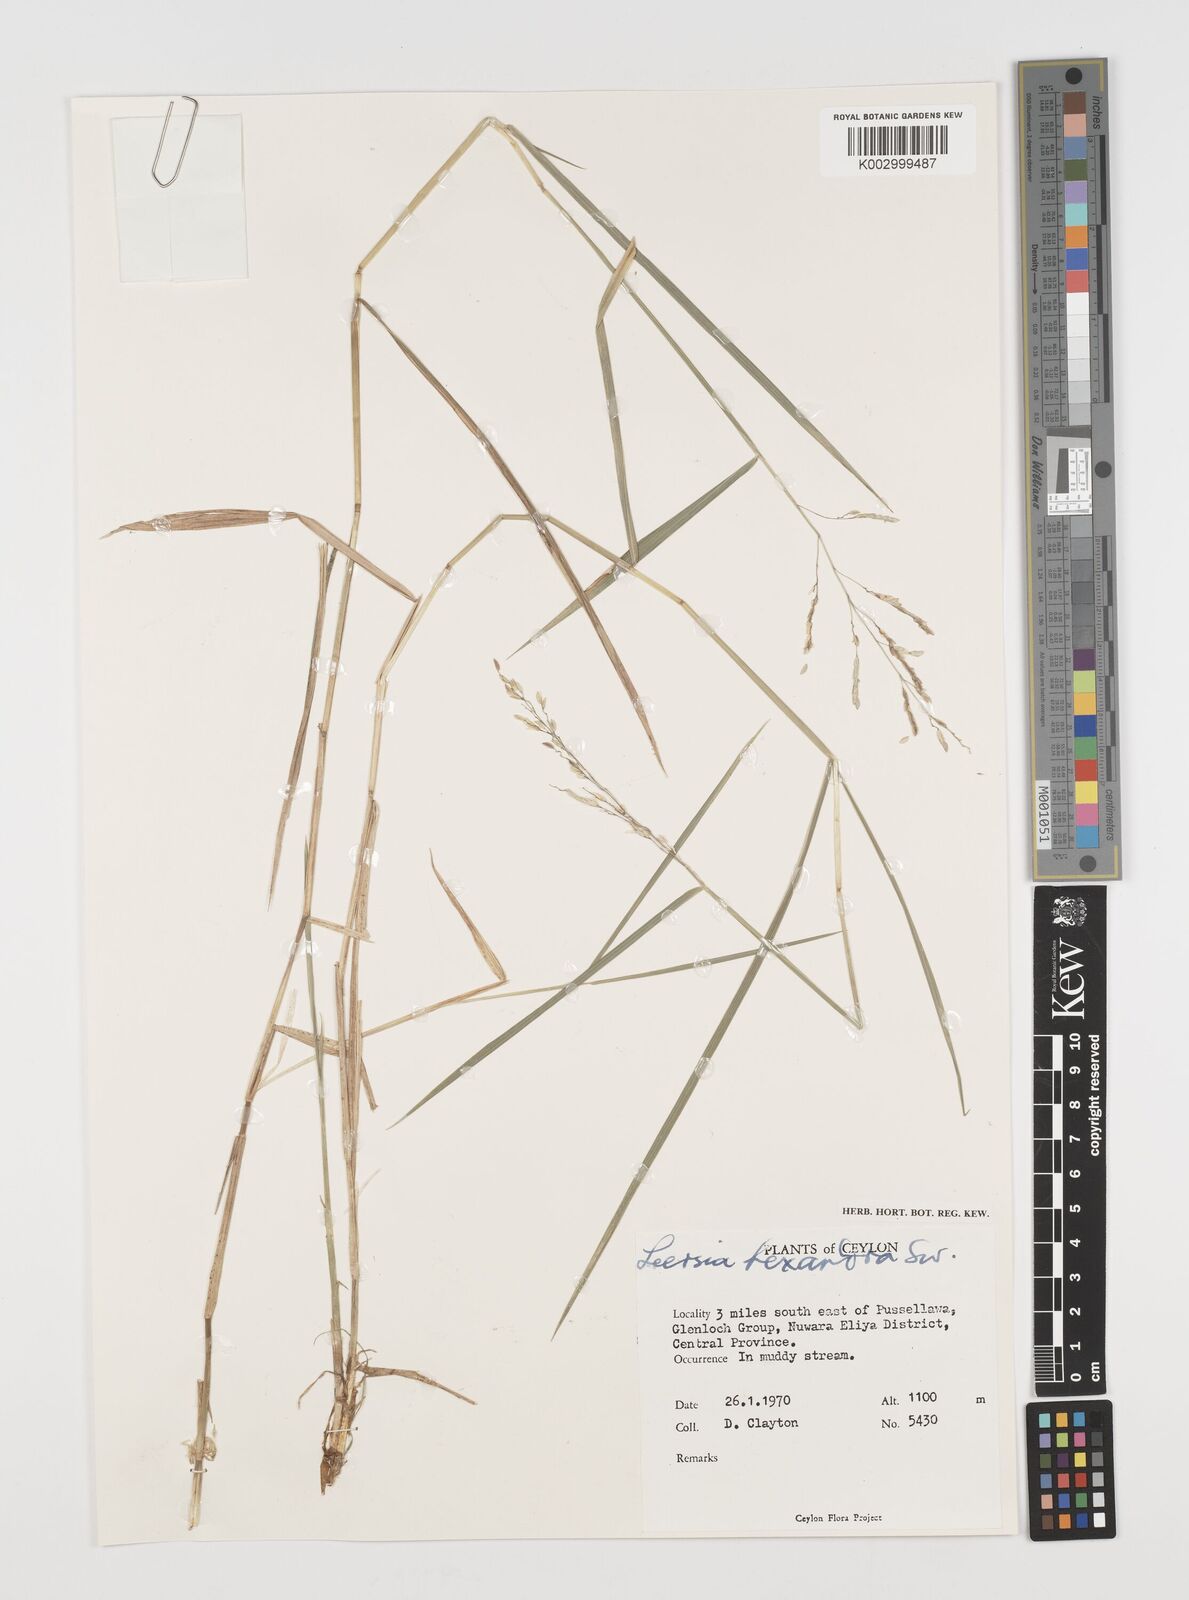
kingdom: Plantae
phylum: Tracheophyta
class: Liliopsida
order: Poales
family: Poaceae
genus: Leersia
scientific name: Leersia hexandra
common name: Southern cut grass
